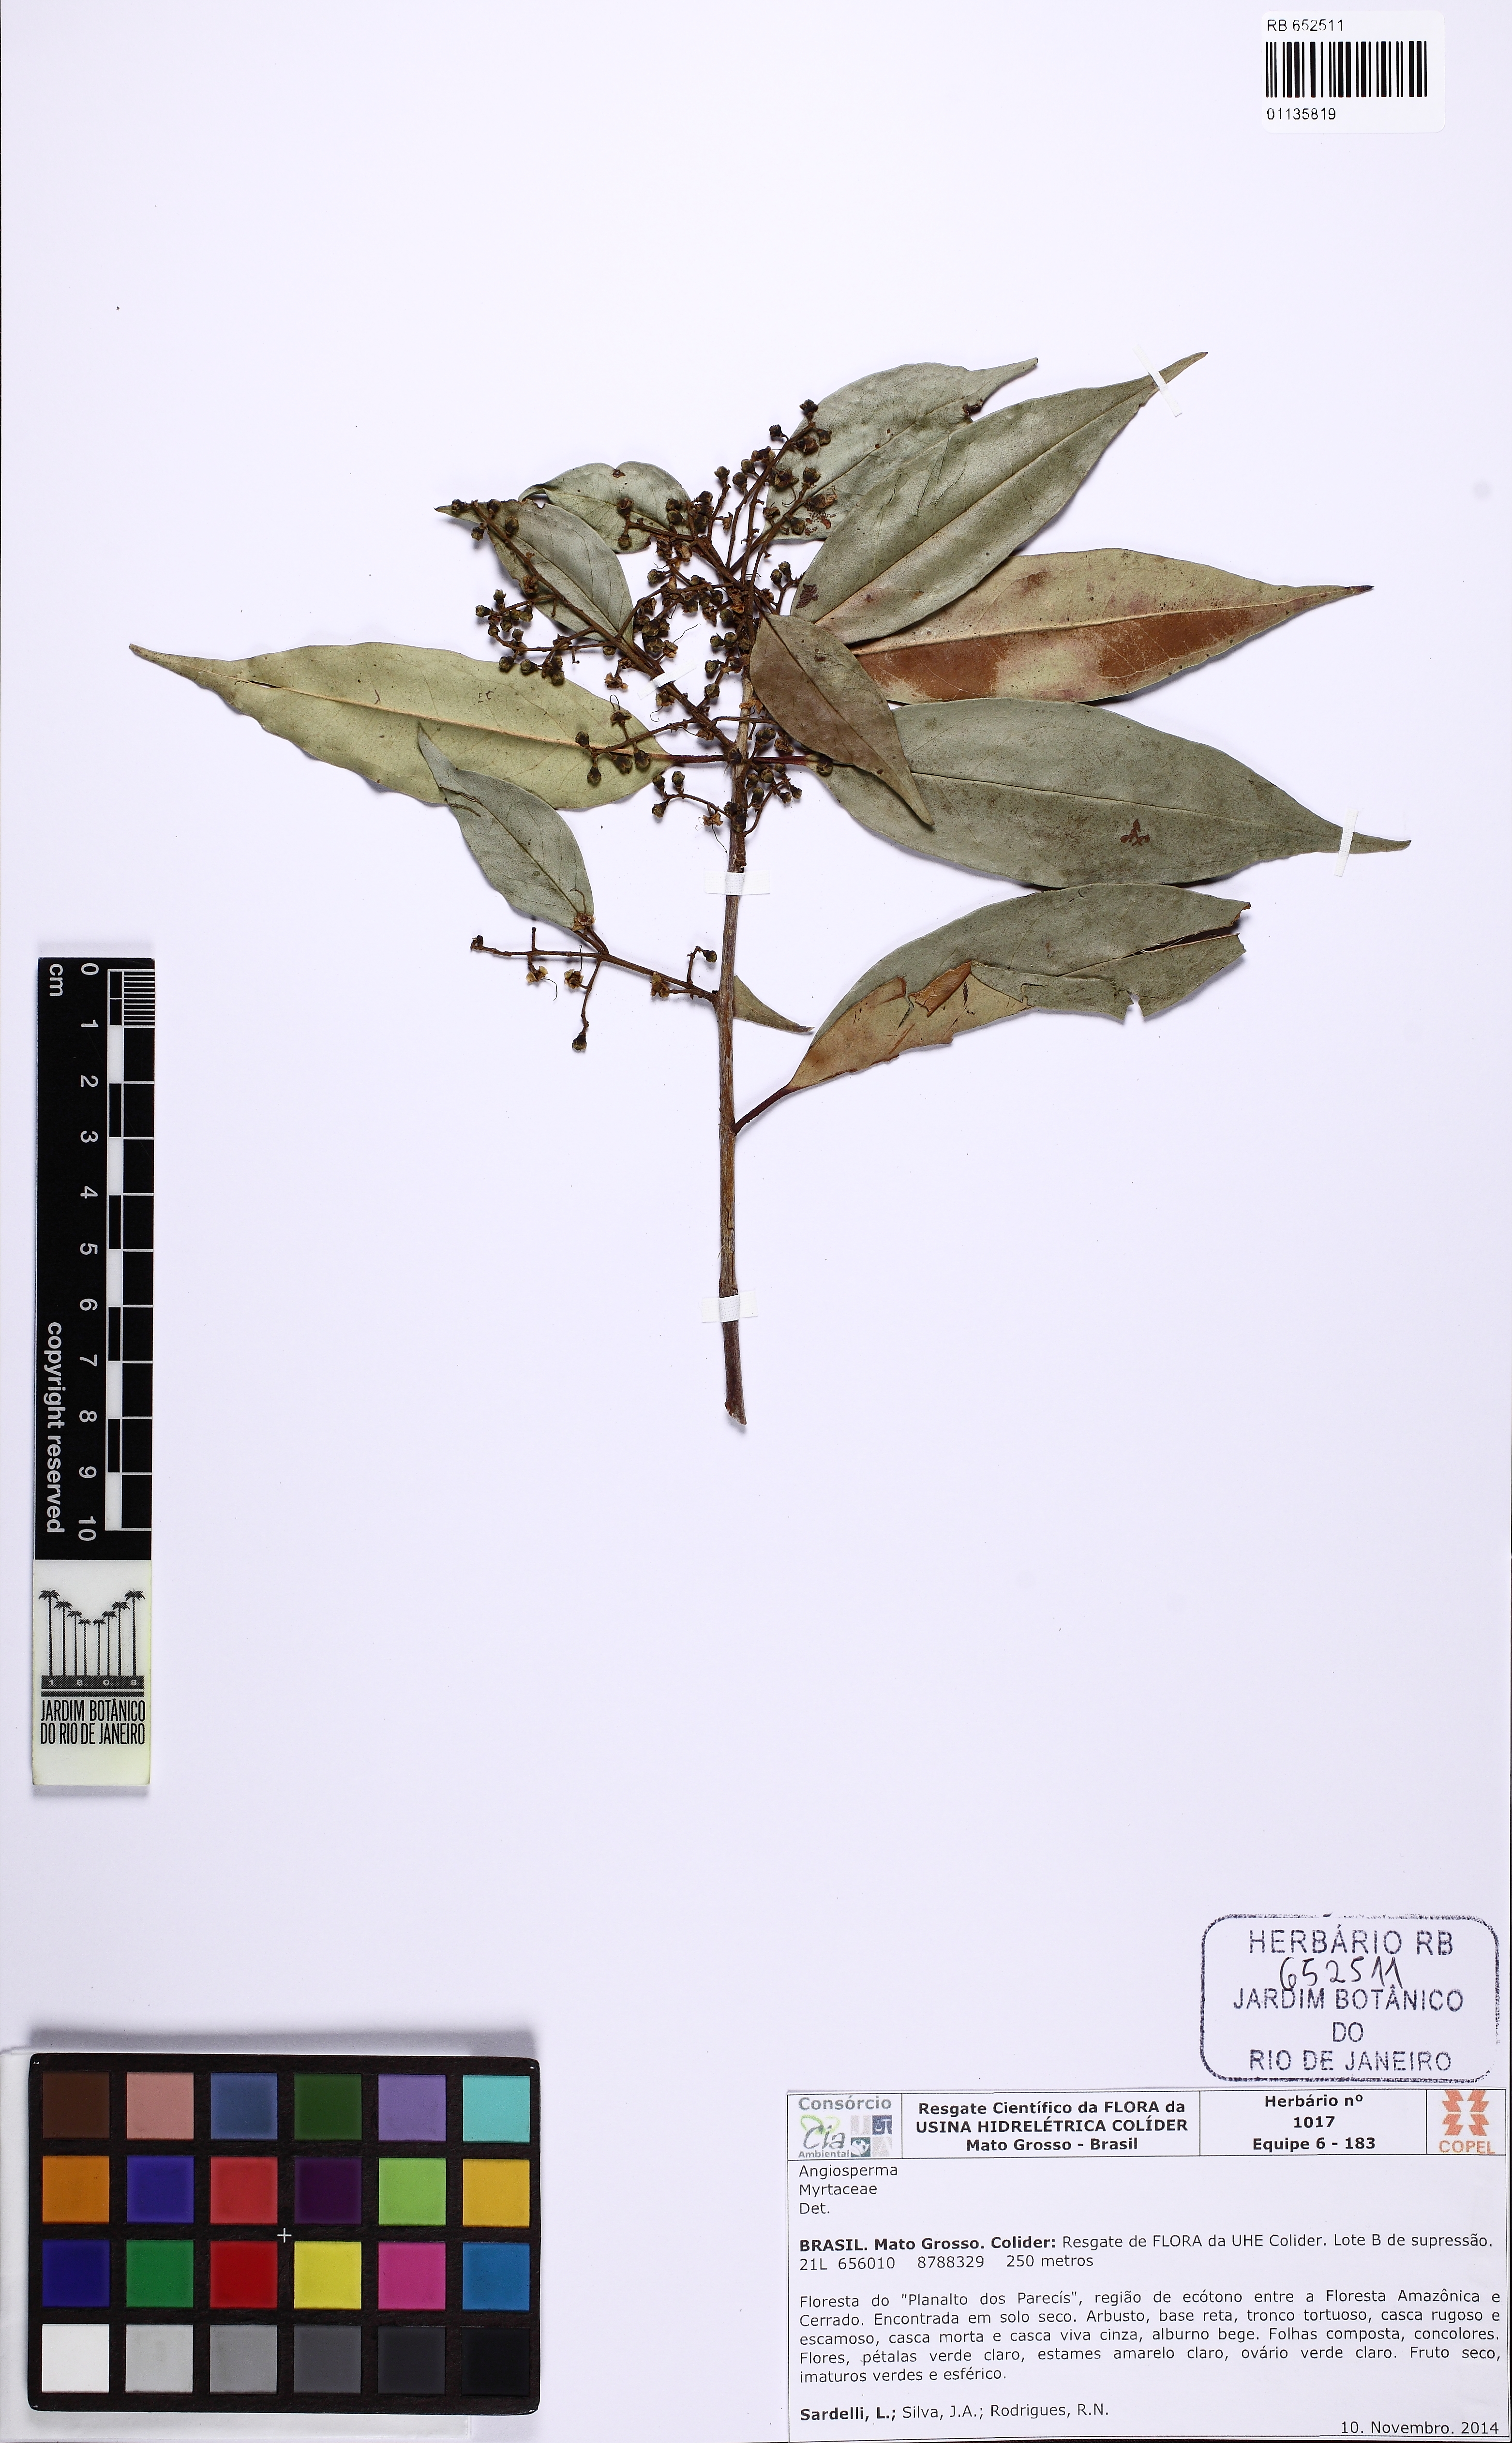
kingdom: Plantae
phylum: Tracheophyta
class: Magnoliopsida
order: Myrtales
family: Myrtaceae
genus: Eugenia
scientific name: Eugenia florida
